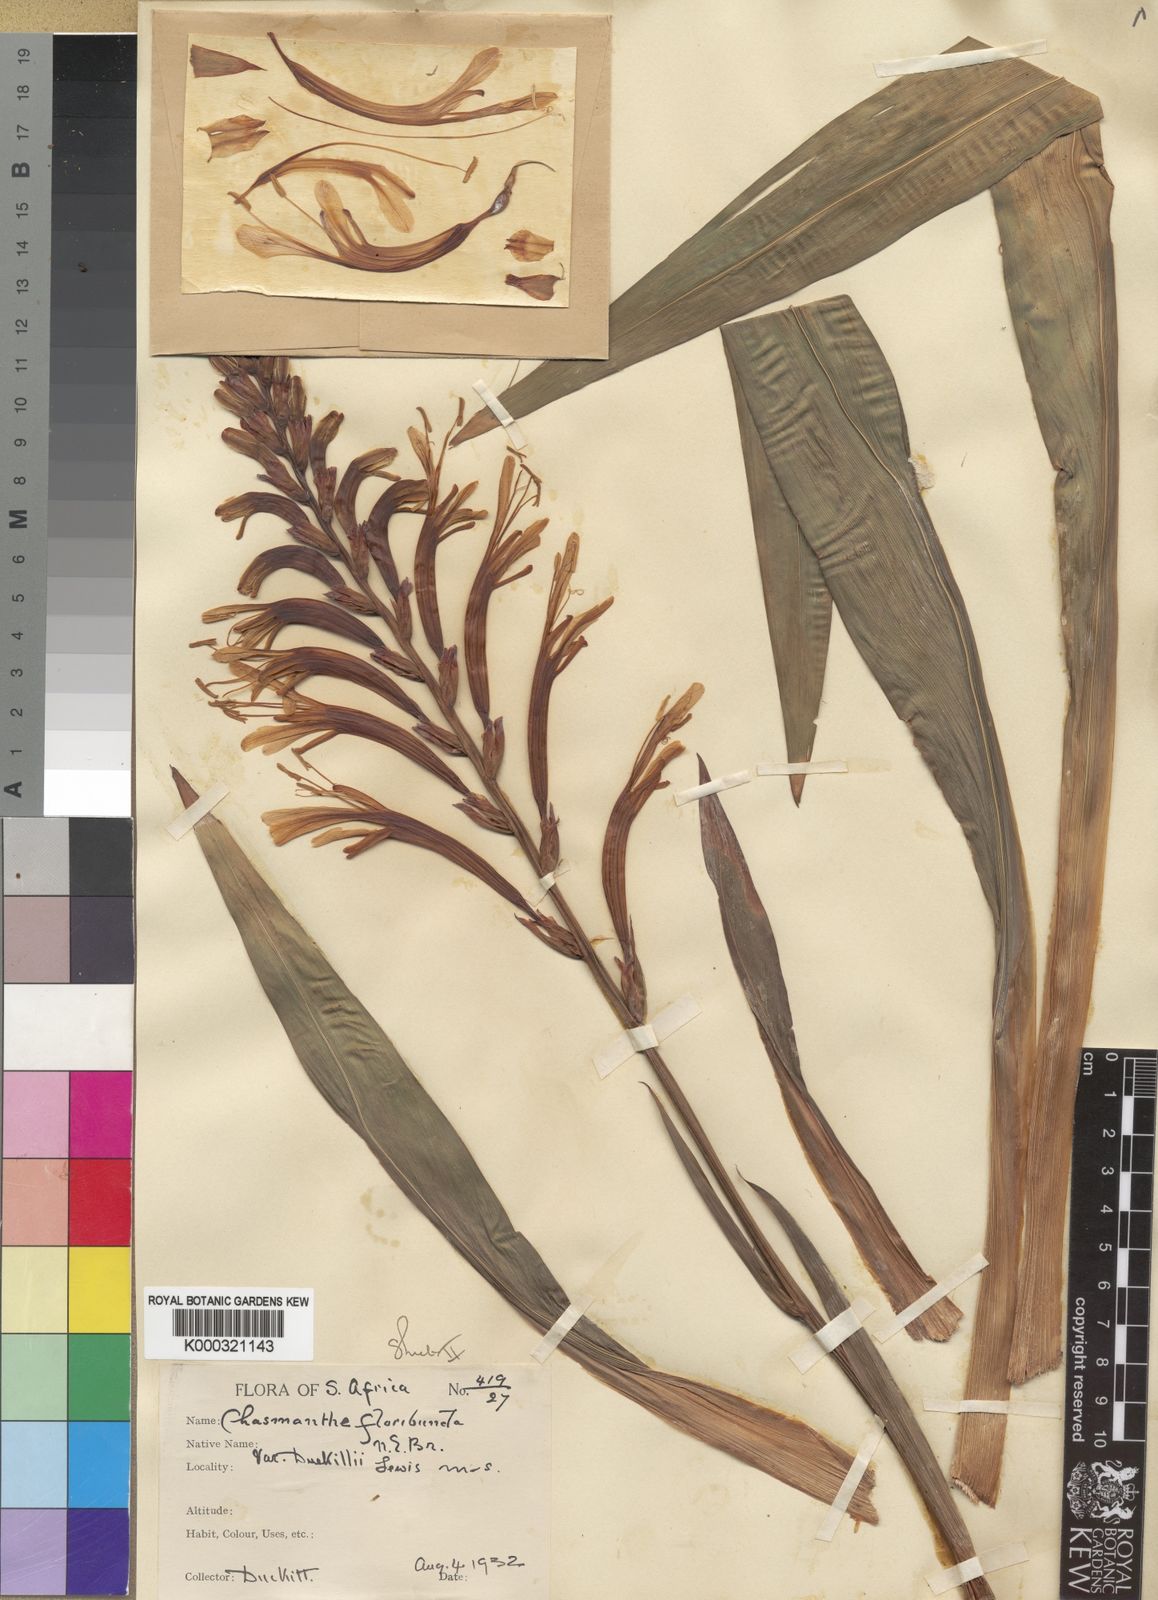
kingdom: Plantae
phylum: Tracheophyta
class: Liliopsida
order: Asparagales
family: Iridaceae
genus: Chasmanthe
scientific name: Chasmanthe floribunda
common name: African cornflag
